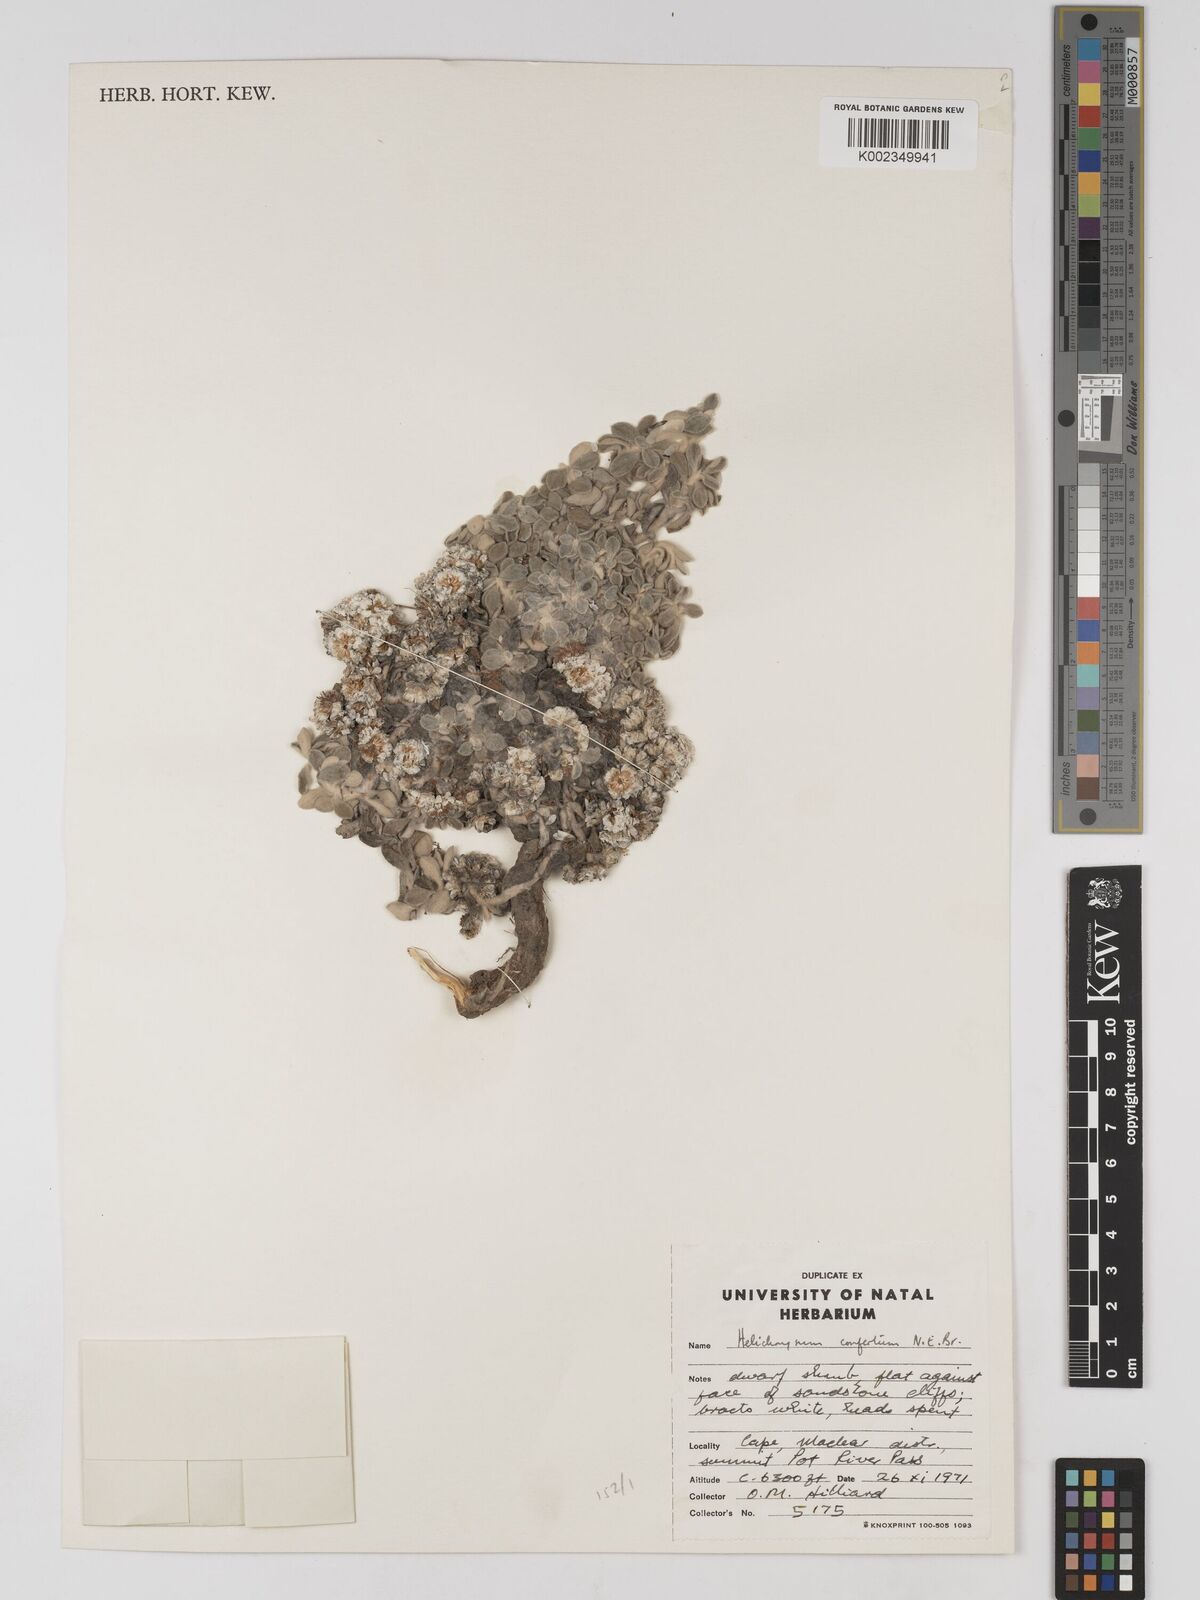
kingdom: Plantae
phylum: Tracheophyta
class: Magnoliopsida
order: Asterales
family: Asteraceae
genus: Helichrysum
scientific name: Helichrysum confertum
